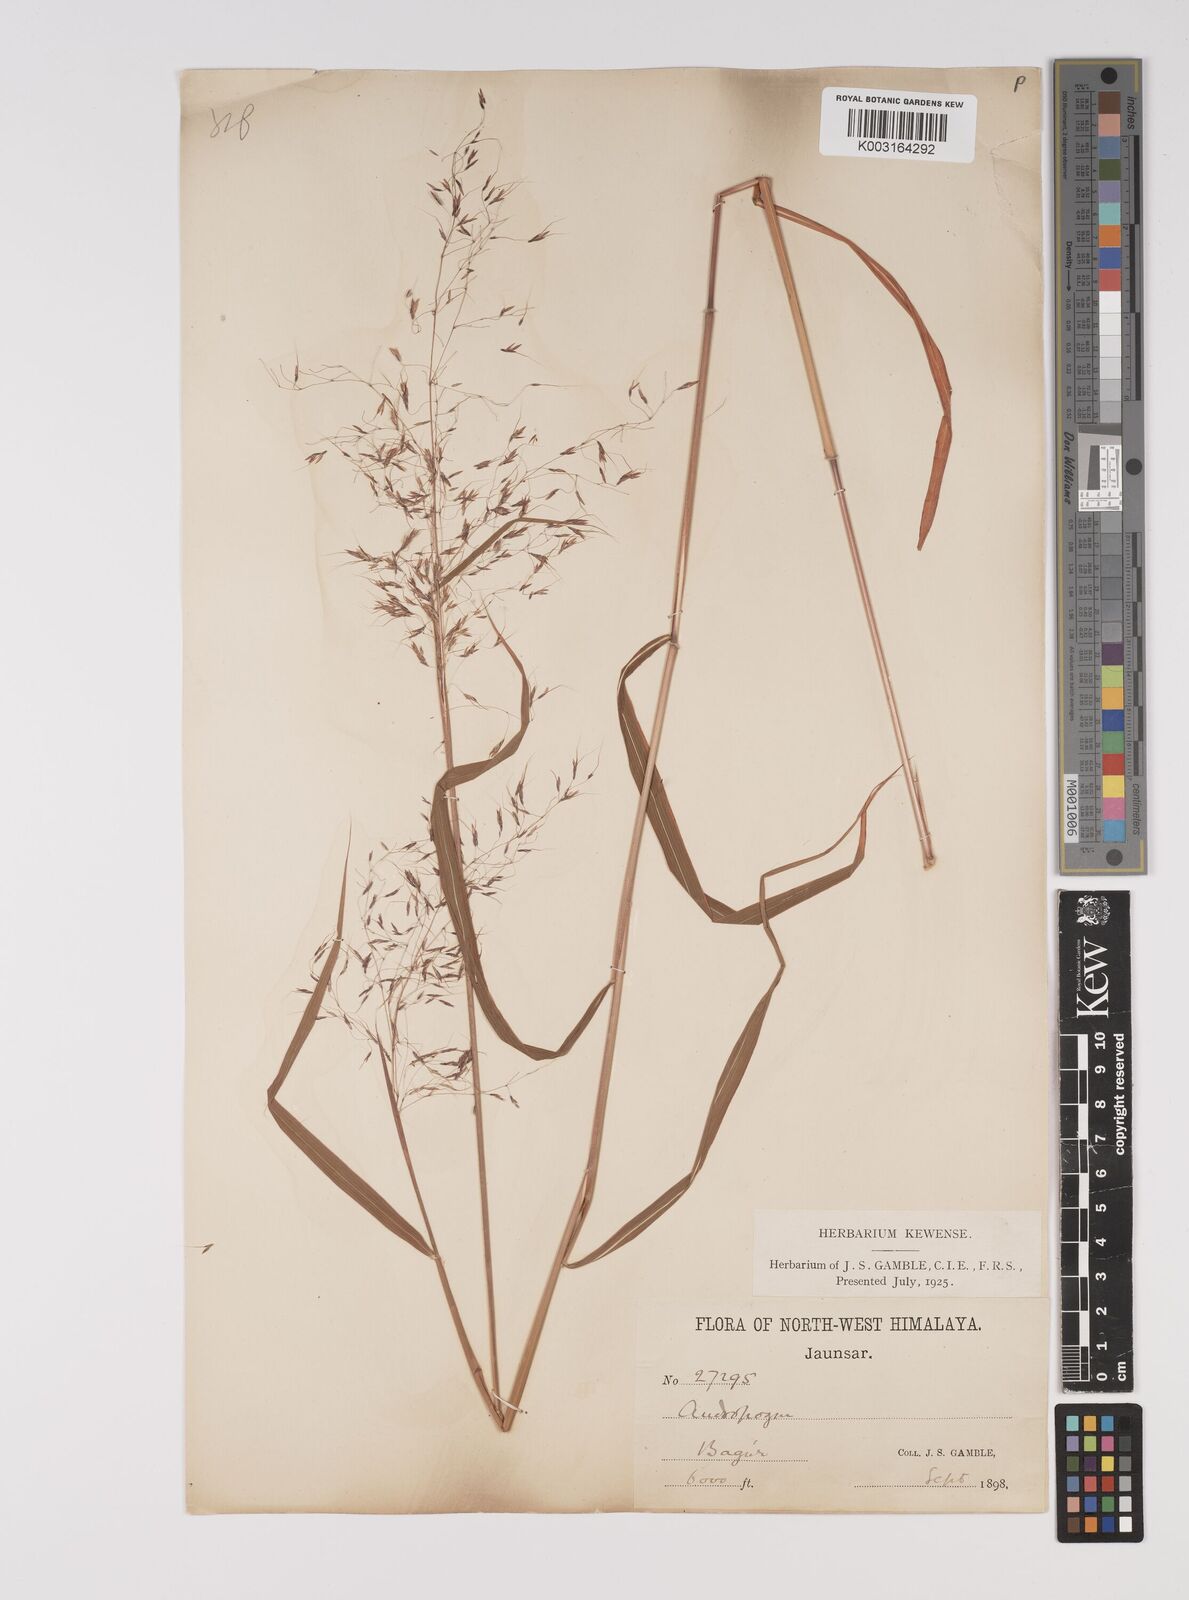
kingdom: Plantae
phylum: Tracheophyta
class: Liliopsida
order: Poales
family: Poaceae
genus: Capillipedium
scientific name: Capillipedium parviflorum
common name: Golden-beard
